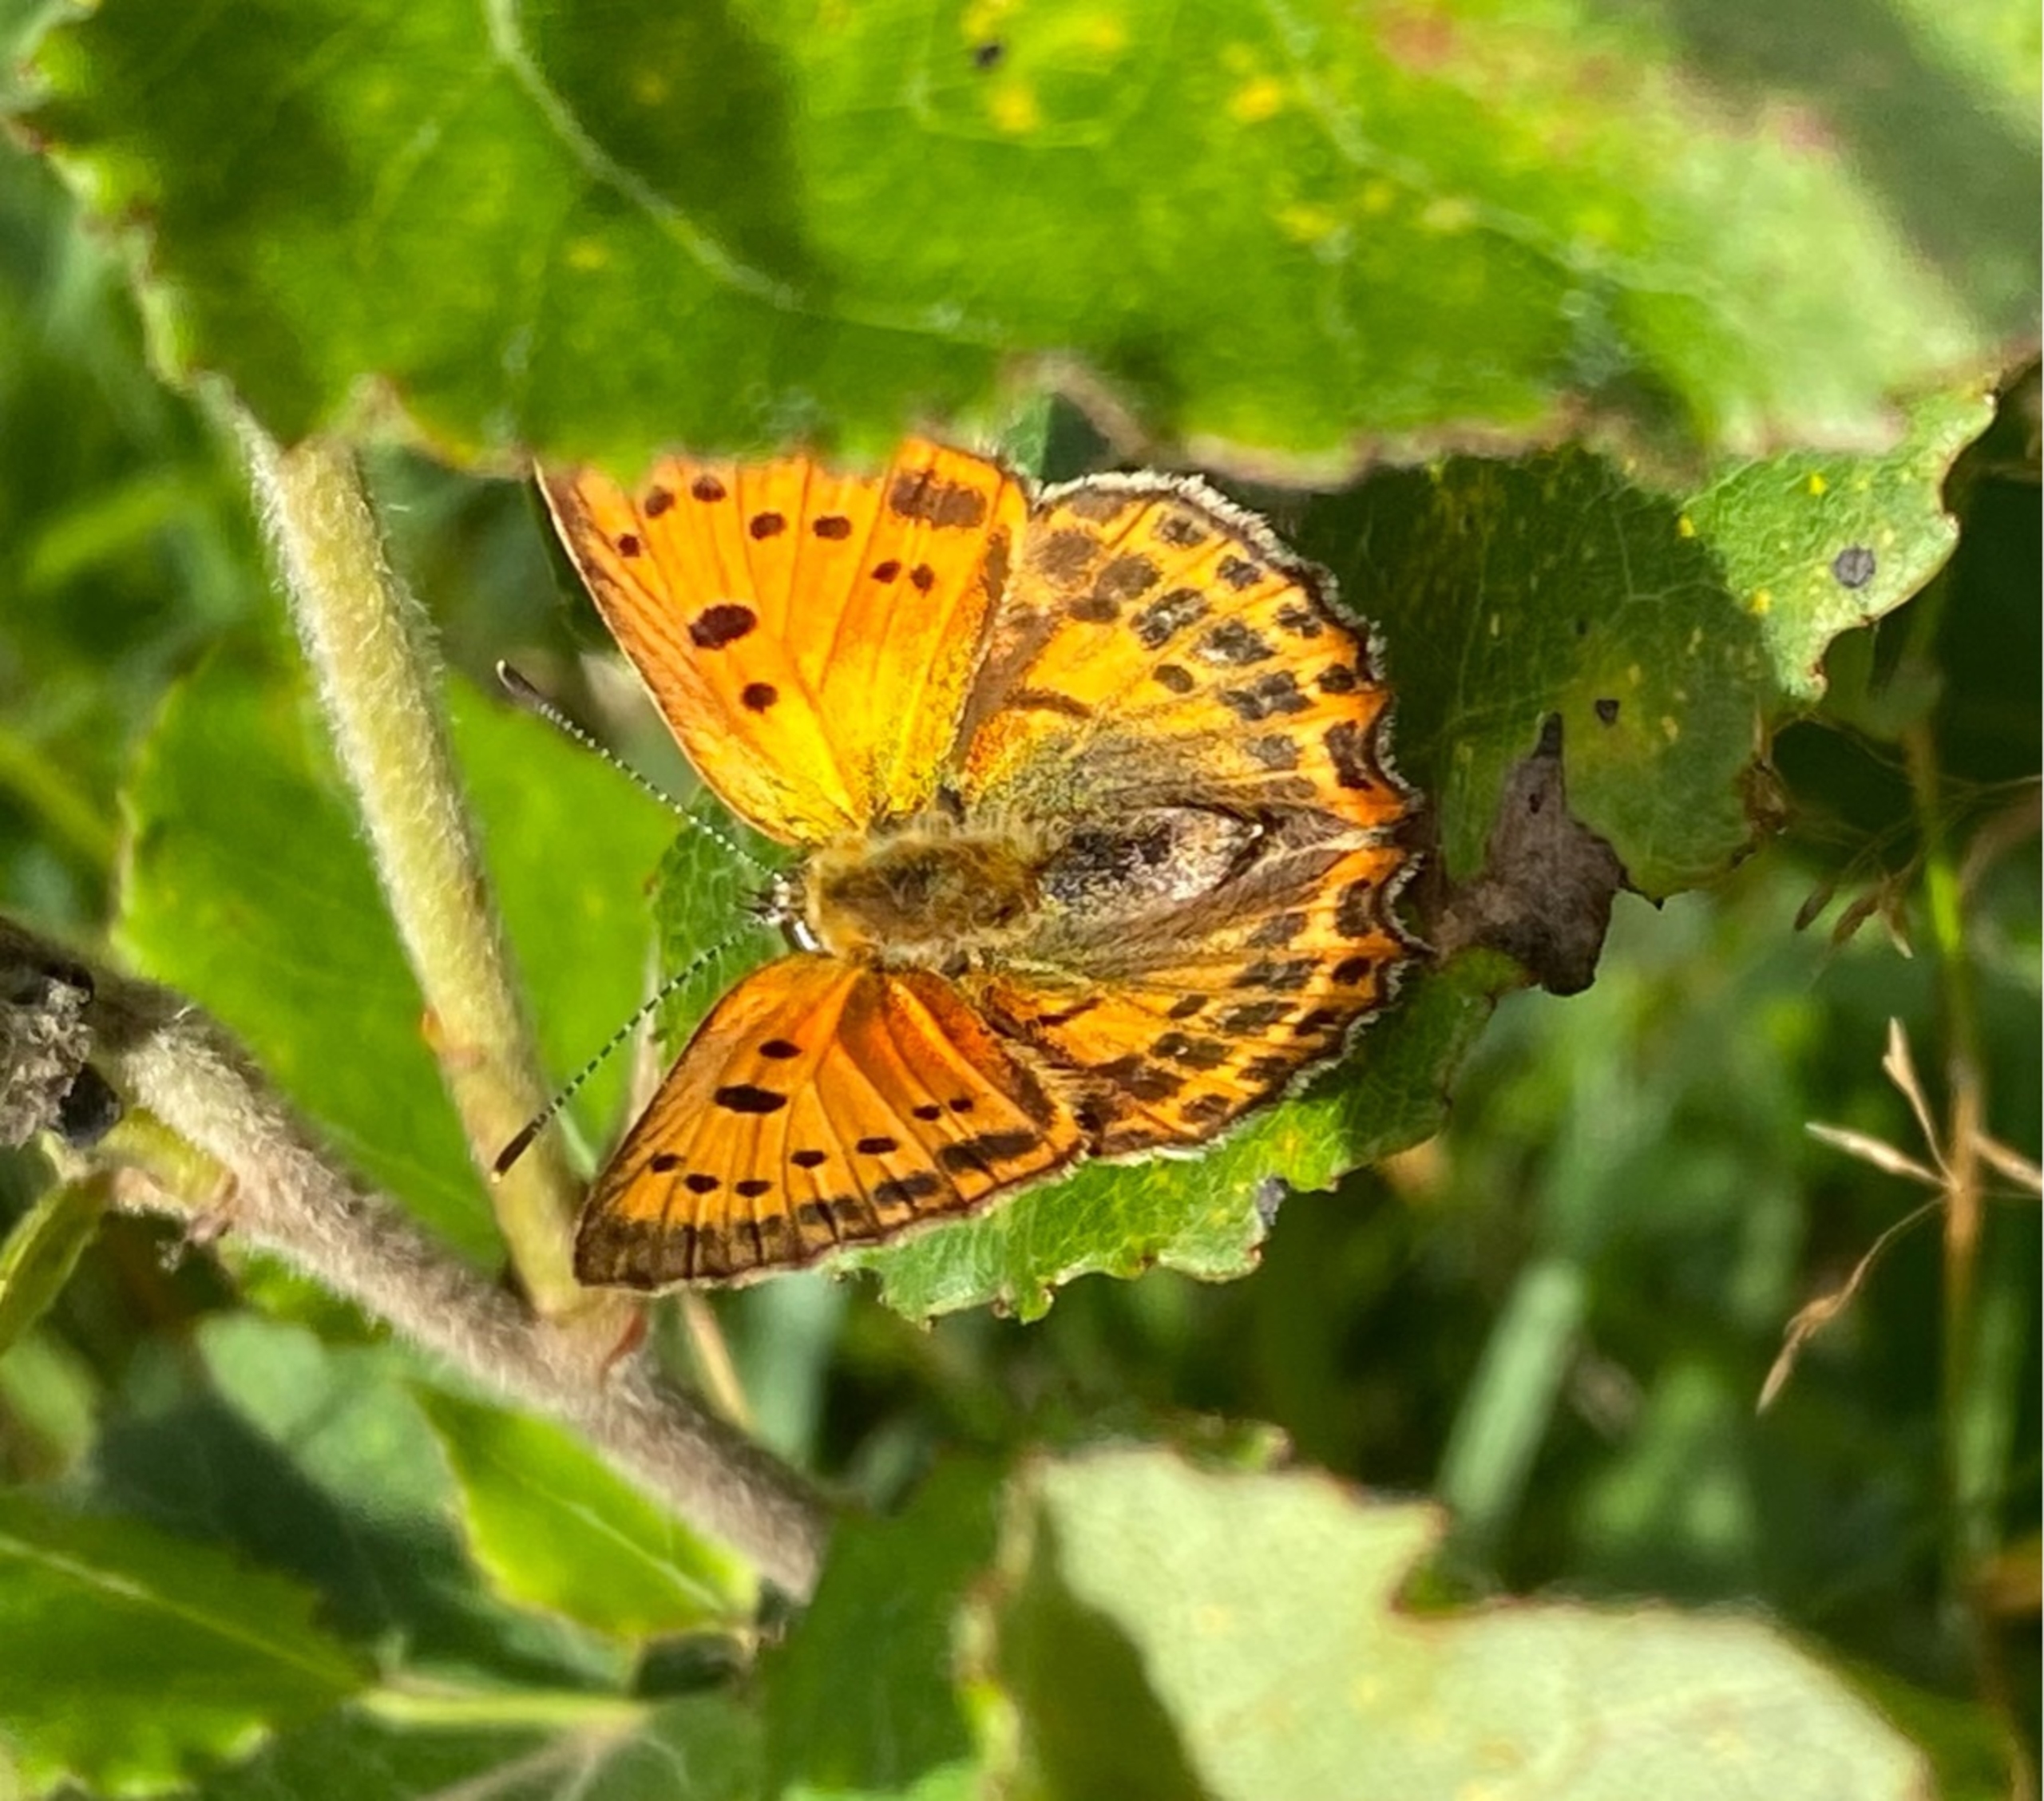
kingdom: Animalia
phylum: Arthropoda
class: Insecta
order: Lepidoptera
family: Lycaenidae
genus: Lycaena
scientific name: Lycaena virgaureae
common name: Dukatsommerfugl
